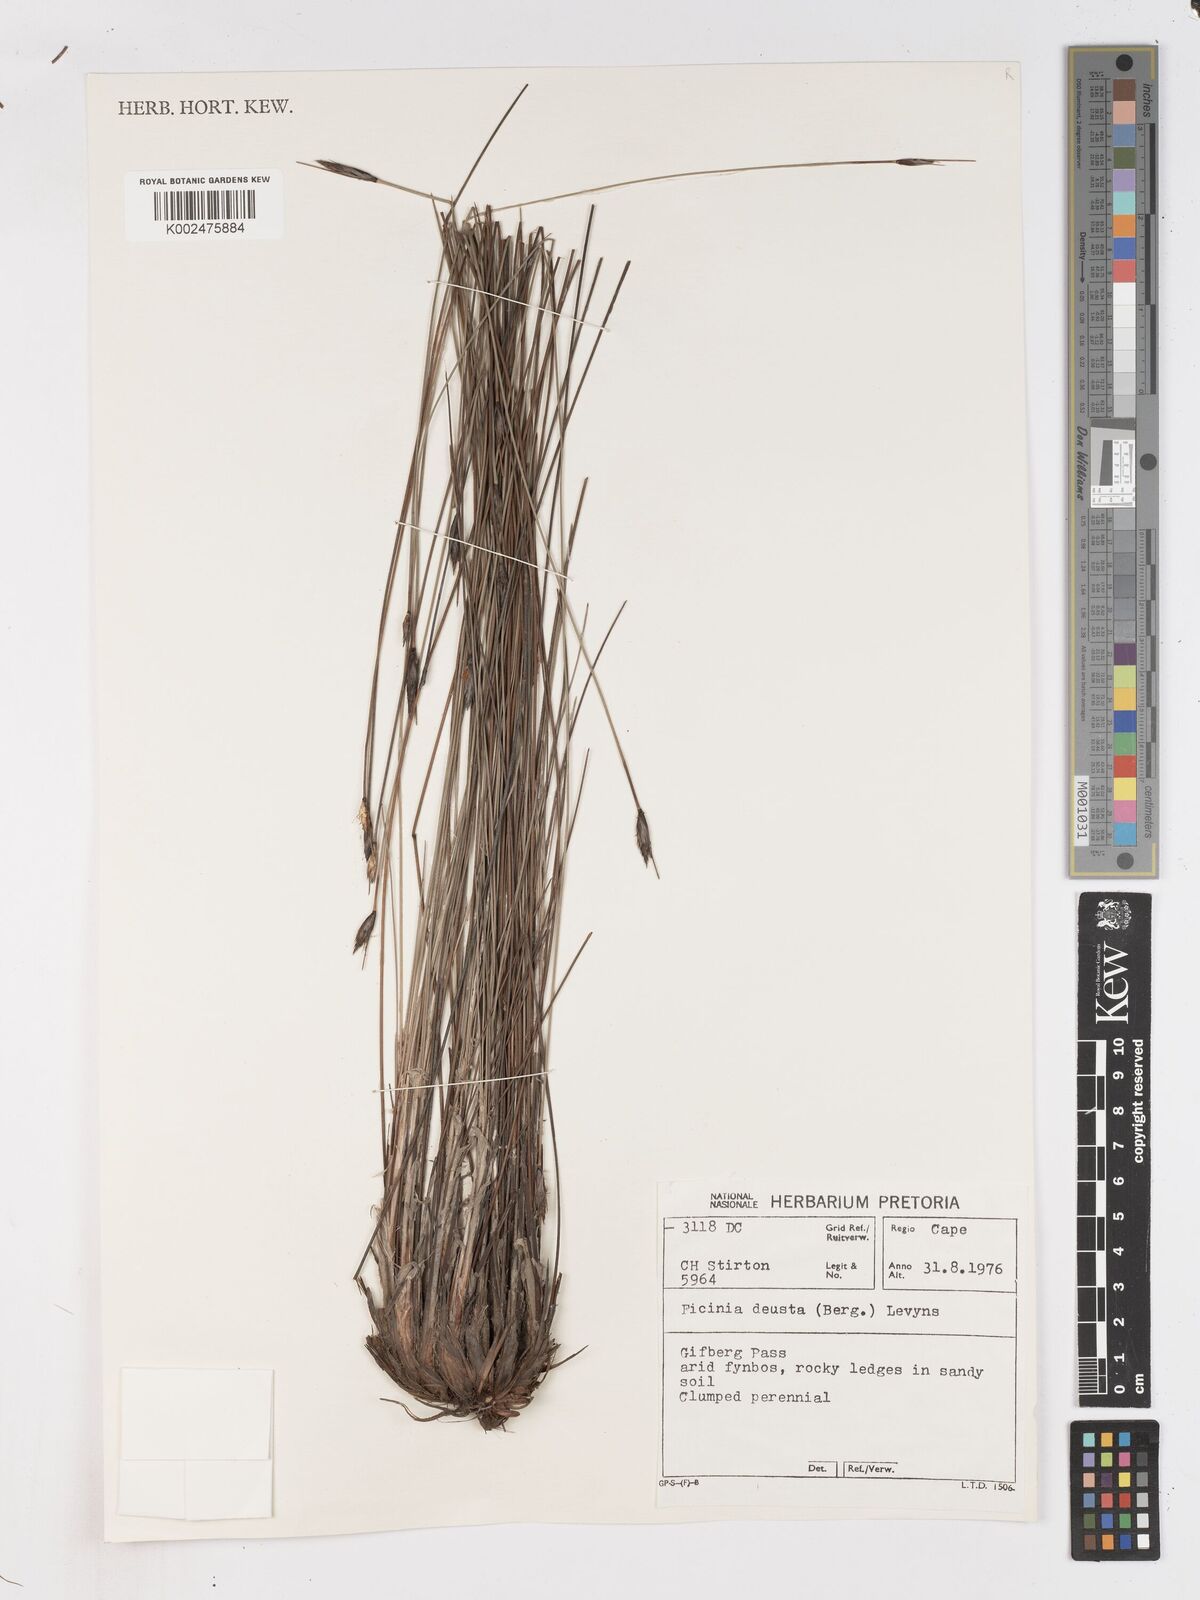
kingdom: Plantae
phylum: Tracheophyta
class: Liliopsida
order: Poales
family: Cyperaceae
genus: Ficinia
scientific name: Ficinia deusta
